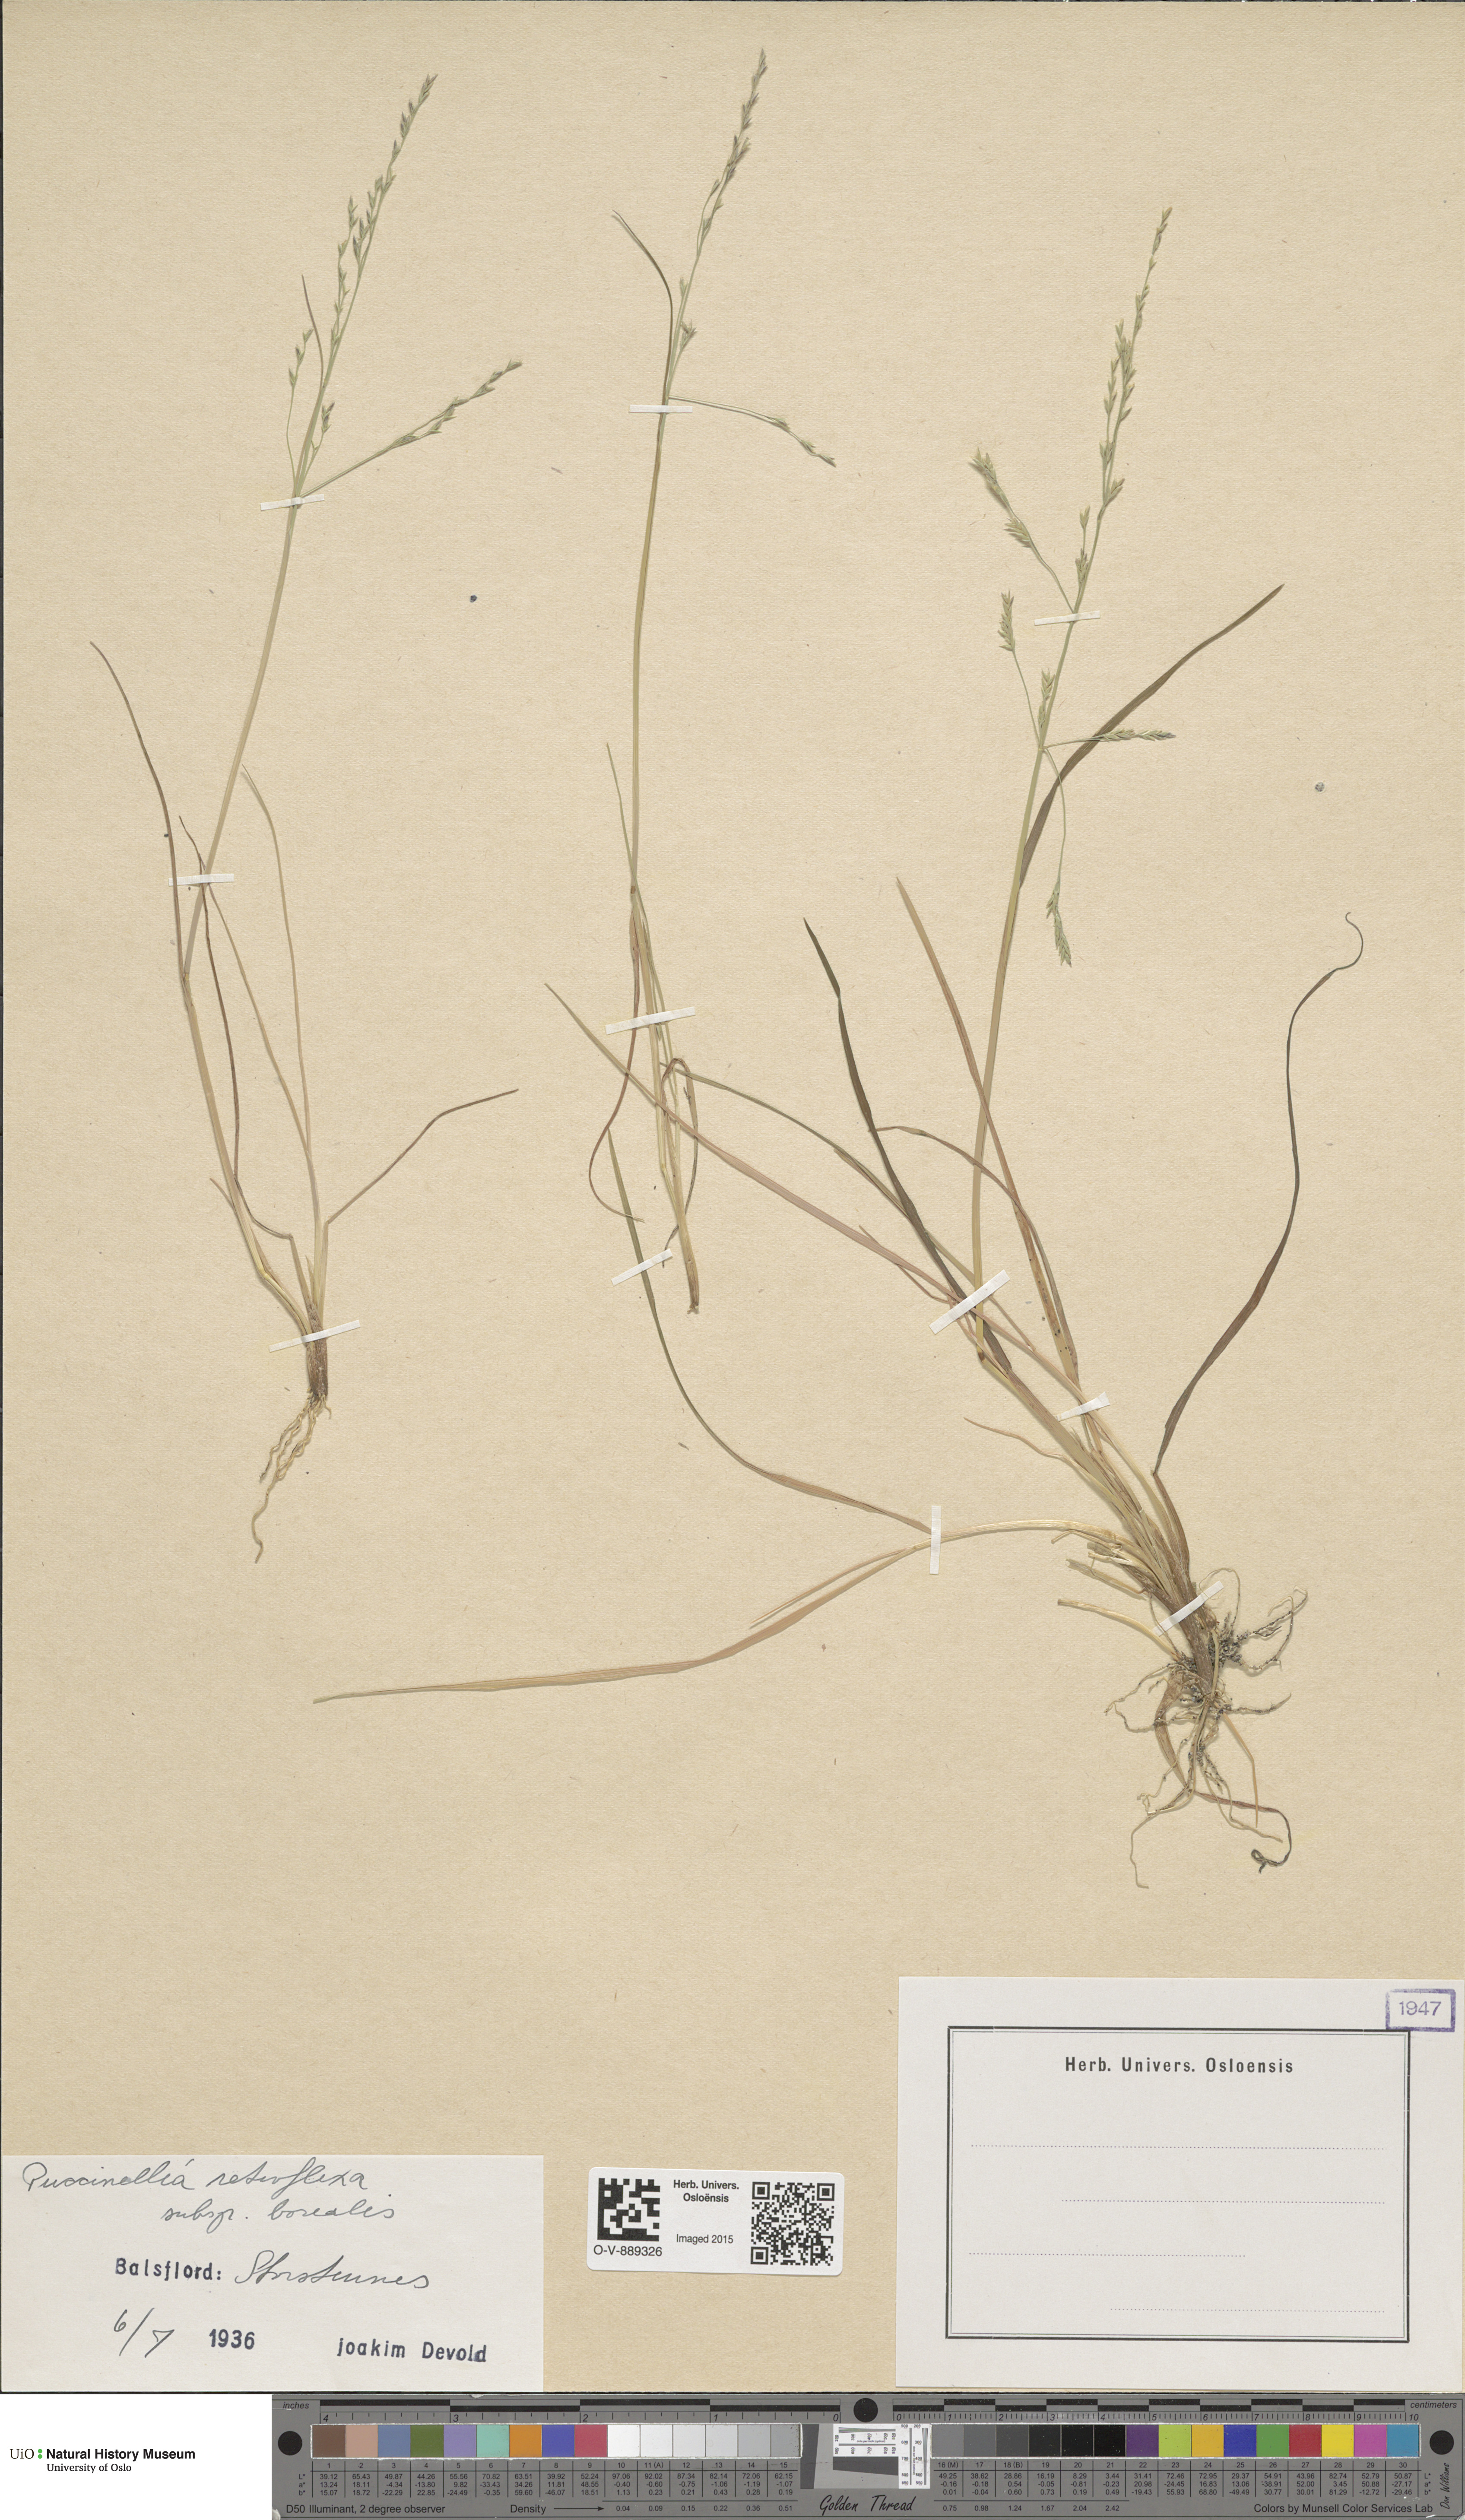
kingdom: Plantae
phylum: Tracheophyta
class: Liliopsida
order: Poales
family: Poaceae
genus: Puccinellia
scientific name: Puccinellia distans
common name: Weeping alkaligrass
